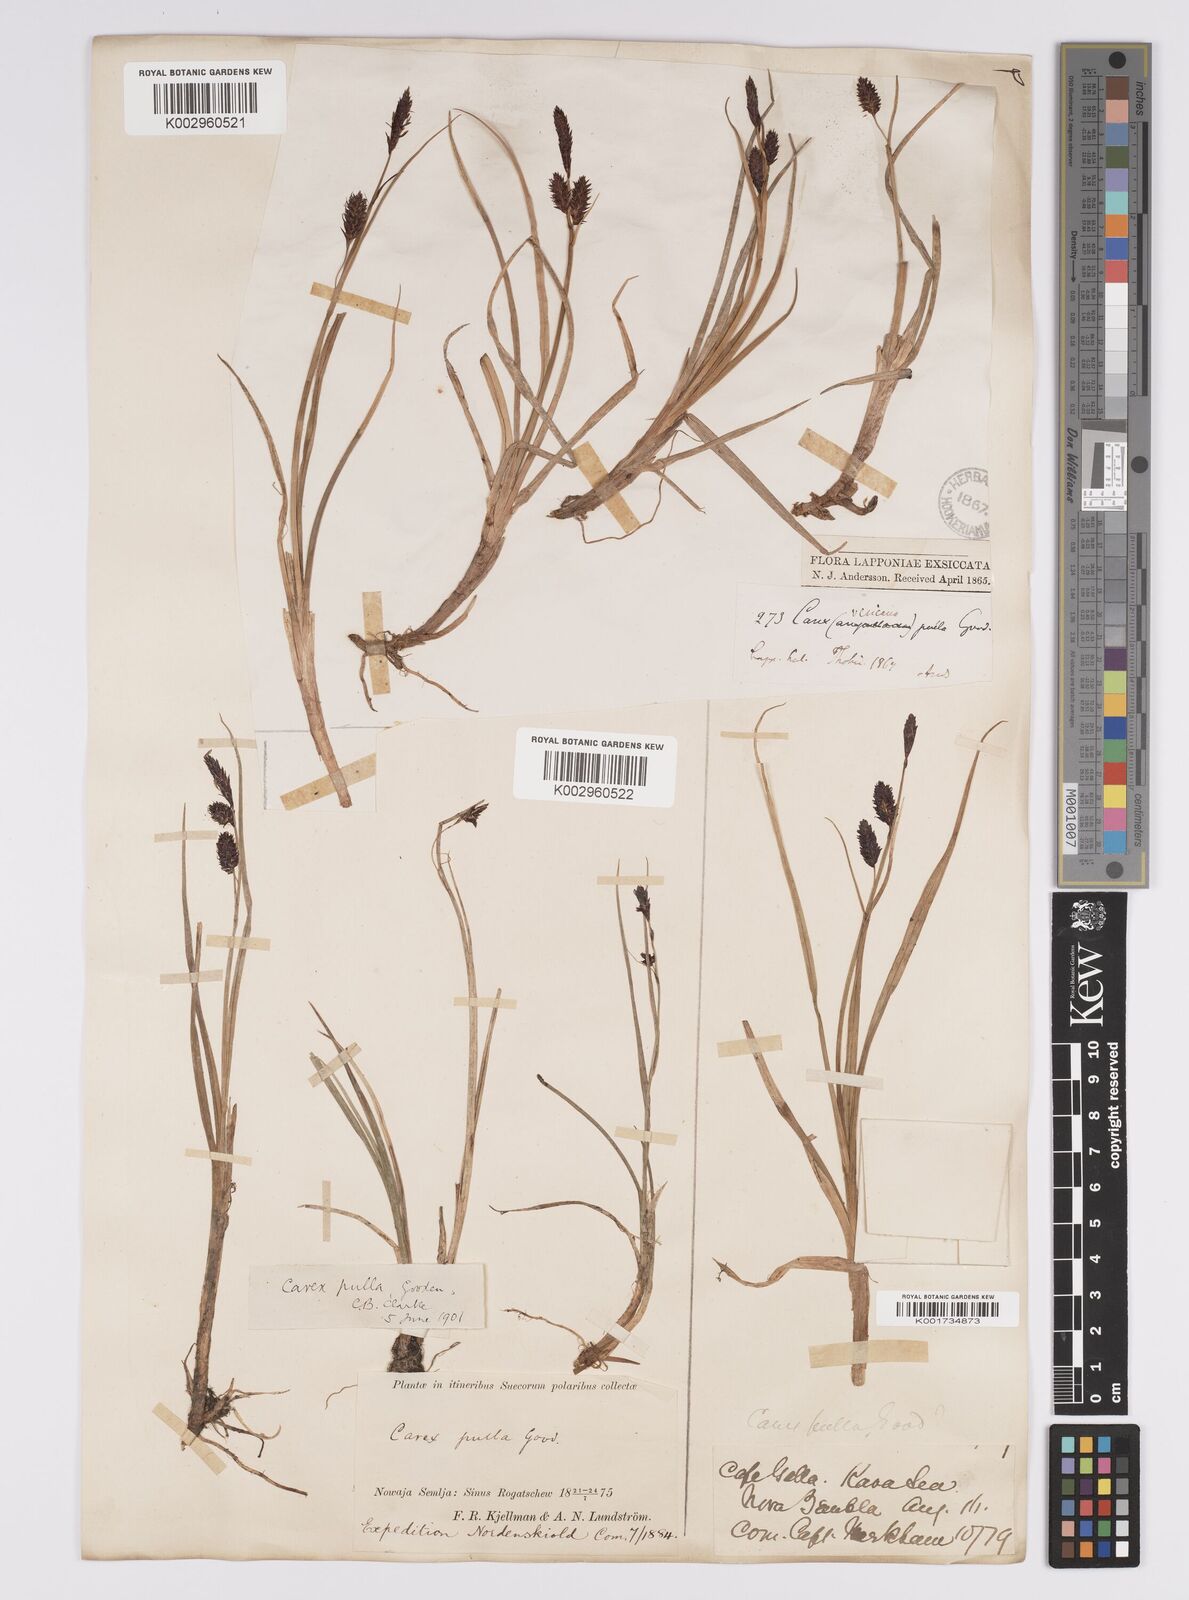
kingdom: Plantae
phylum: Tracheophyta
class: Liliopsida
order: Poales
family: Cyperaceae
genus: Carex
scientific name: Carex saxatilis
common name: Russet sedge
